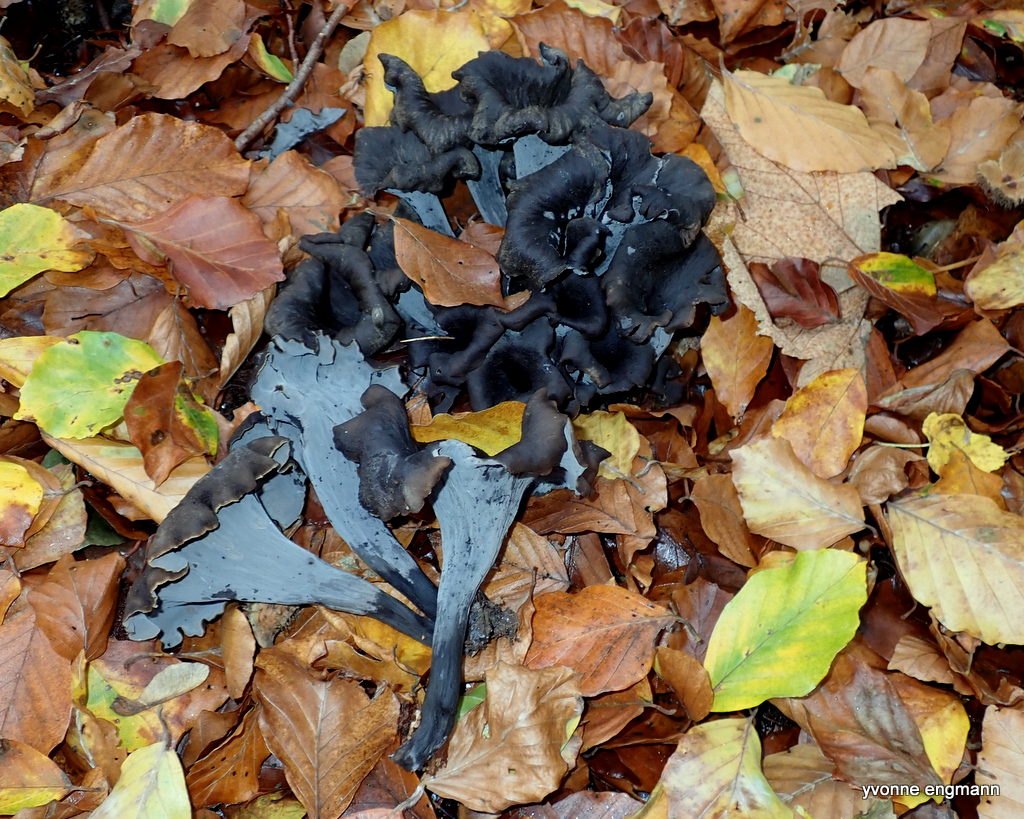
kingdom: Fungi
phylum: Basidiomycota
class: Agaricomycetes
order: Cantharellales
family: Hydnaceae
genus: Craterellus
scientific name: Craterellus cornucopioides
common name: trompetsvamp
